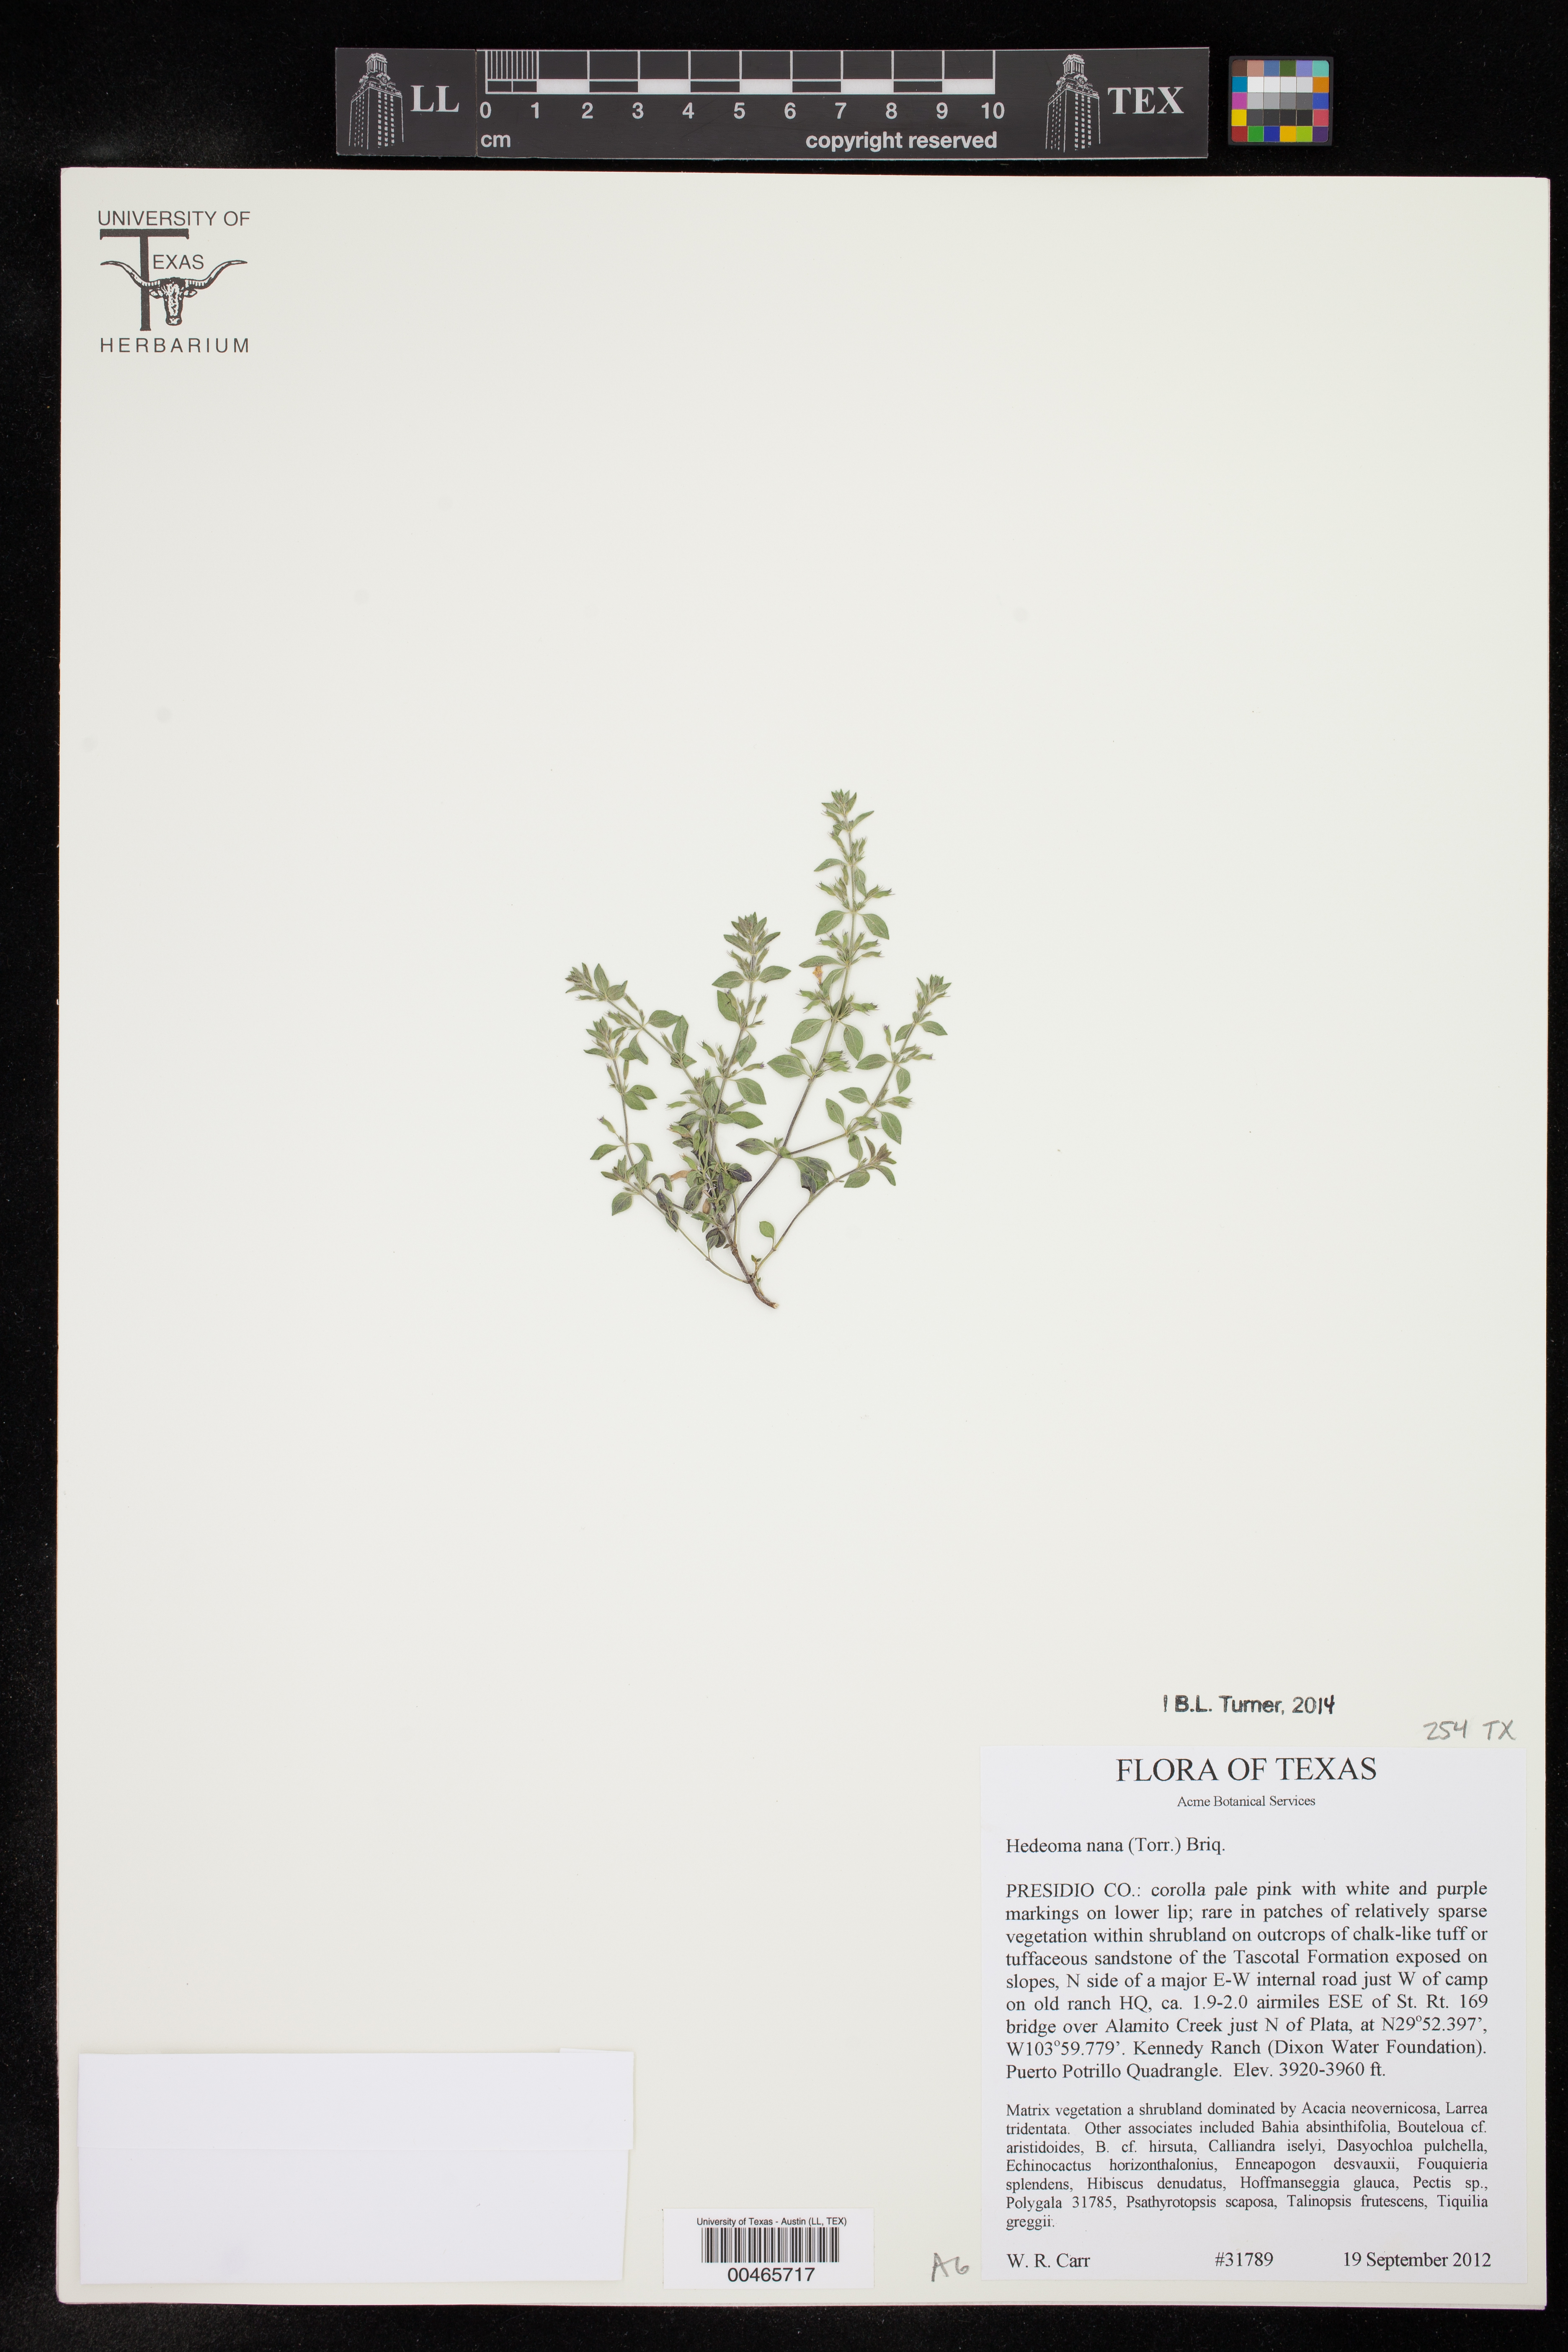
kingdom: Plantae
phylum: Tracheophyta
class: Magnoliopsida
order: Lamiales
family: Lamiaceae
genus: Hedeoma
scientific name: Hedeoma nana
